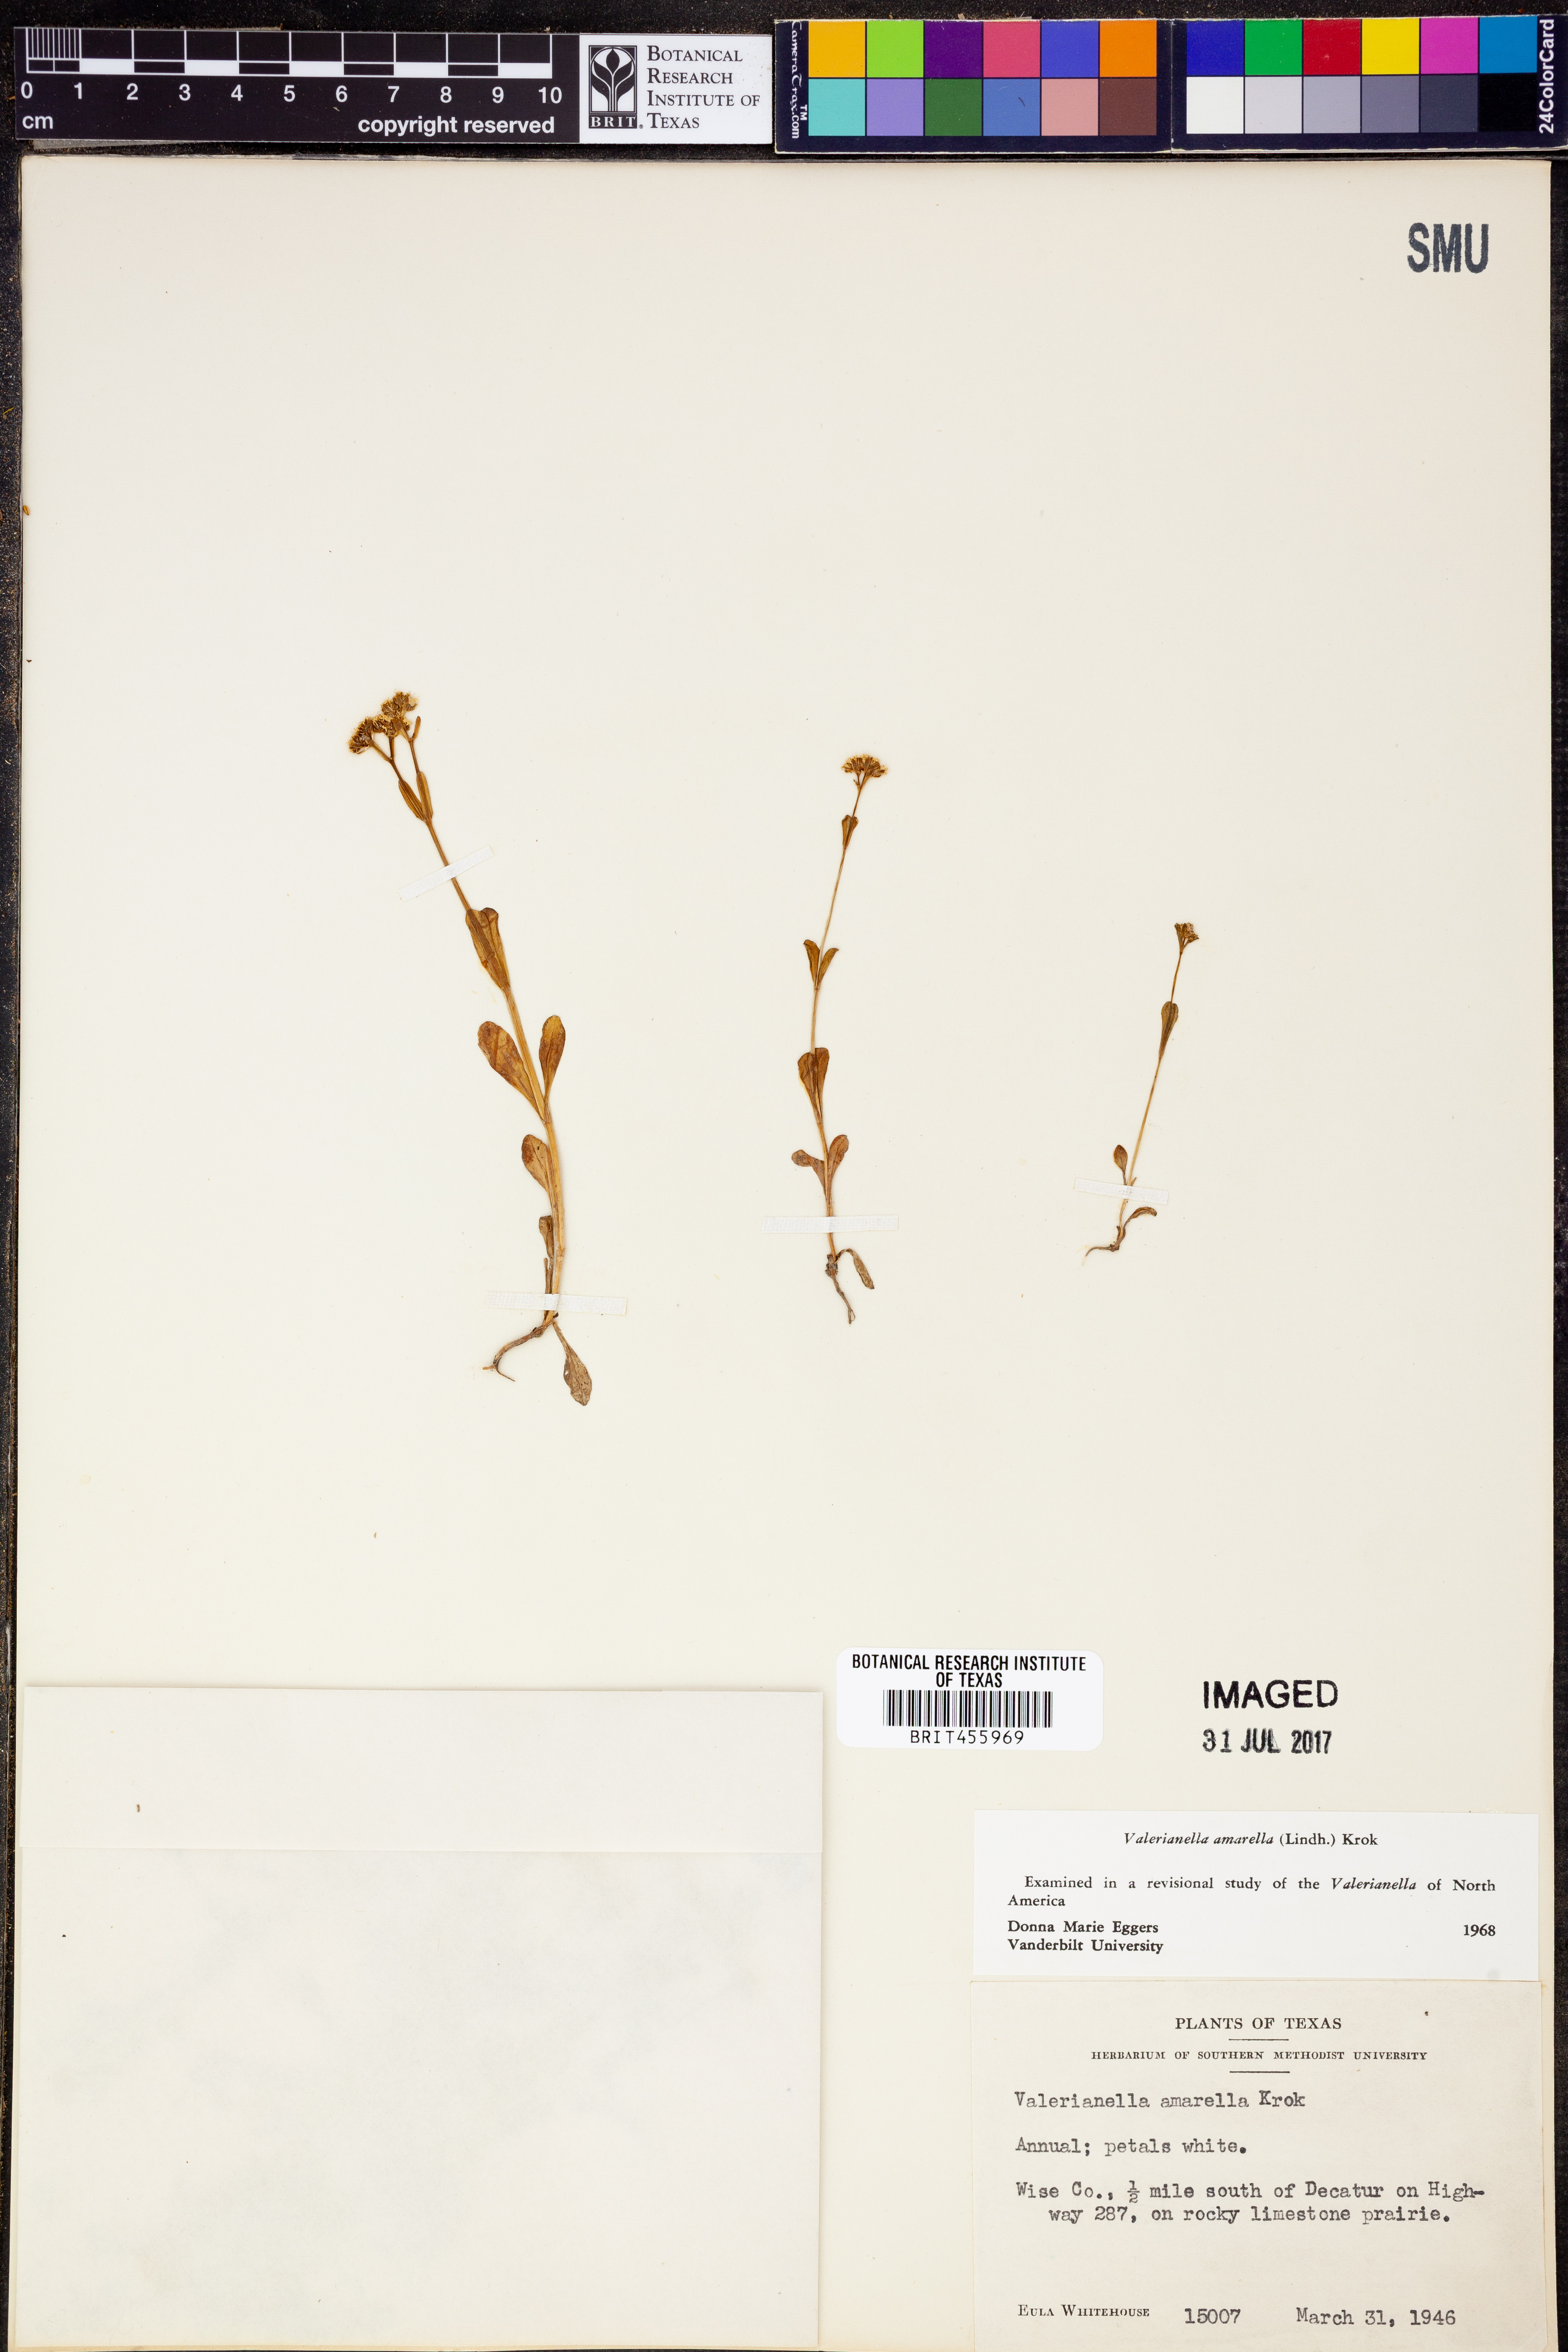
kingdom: Plantae
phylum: Tracheophyta
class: Magnoliopsida
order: Dipsacales
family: Caprifoliaceae
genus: Valerianella
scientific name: Valerianella amarella
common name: Hariy cornsalad
